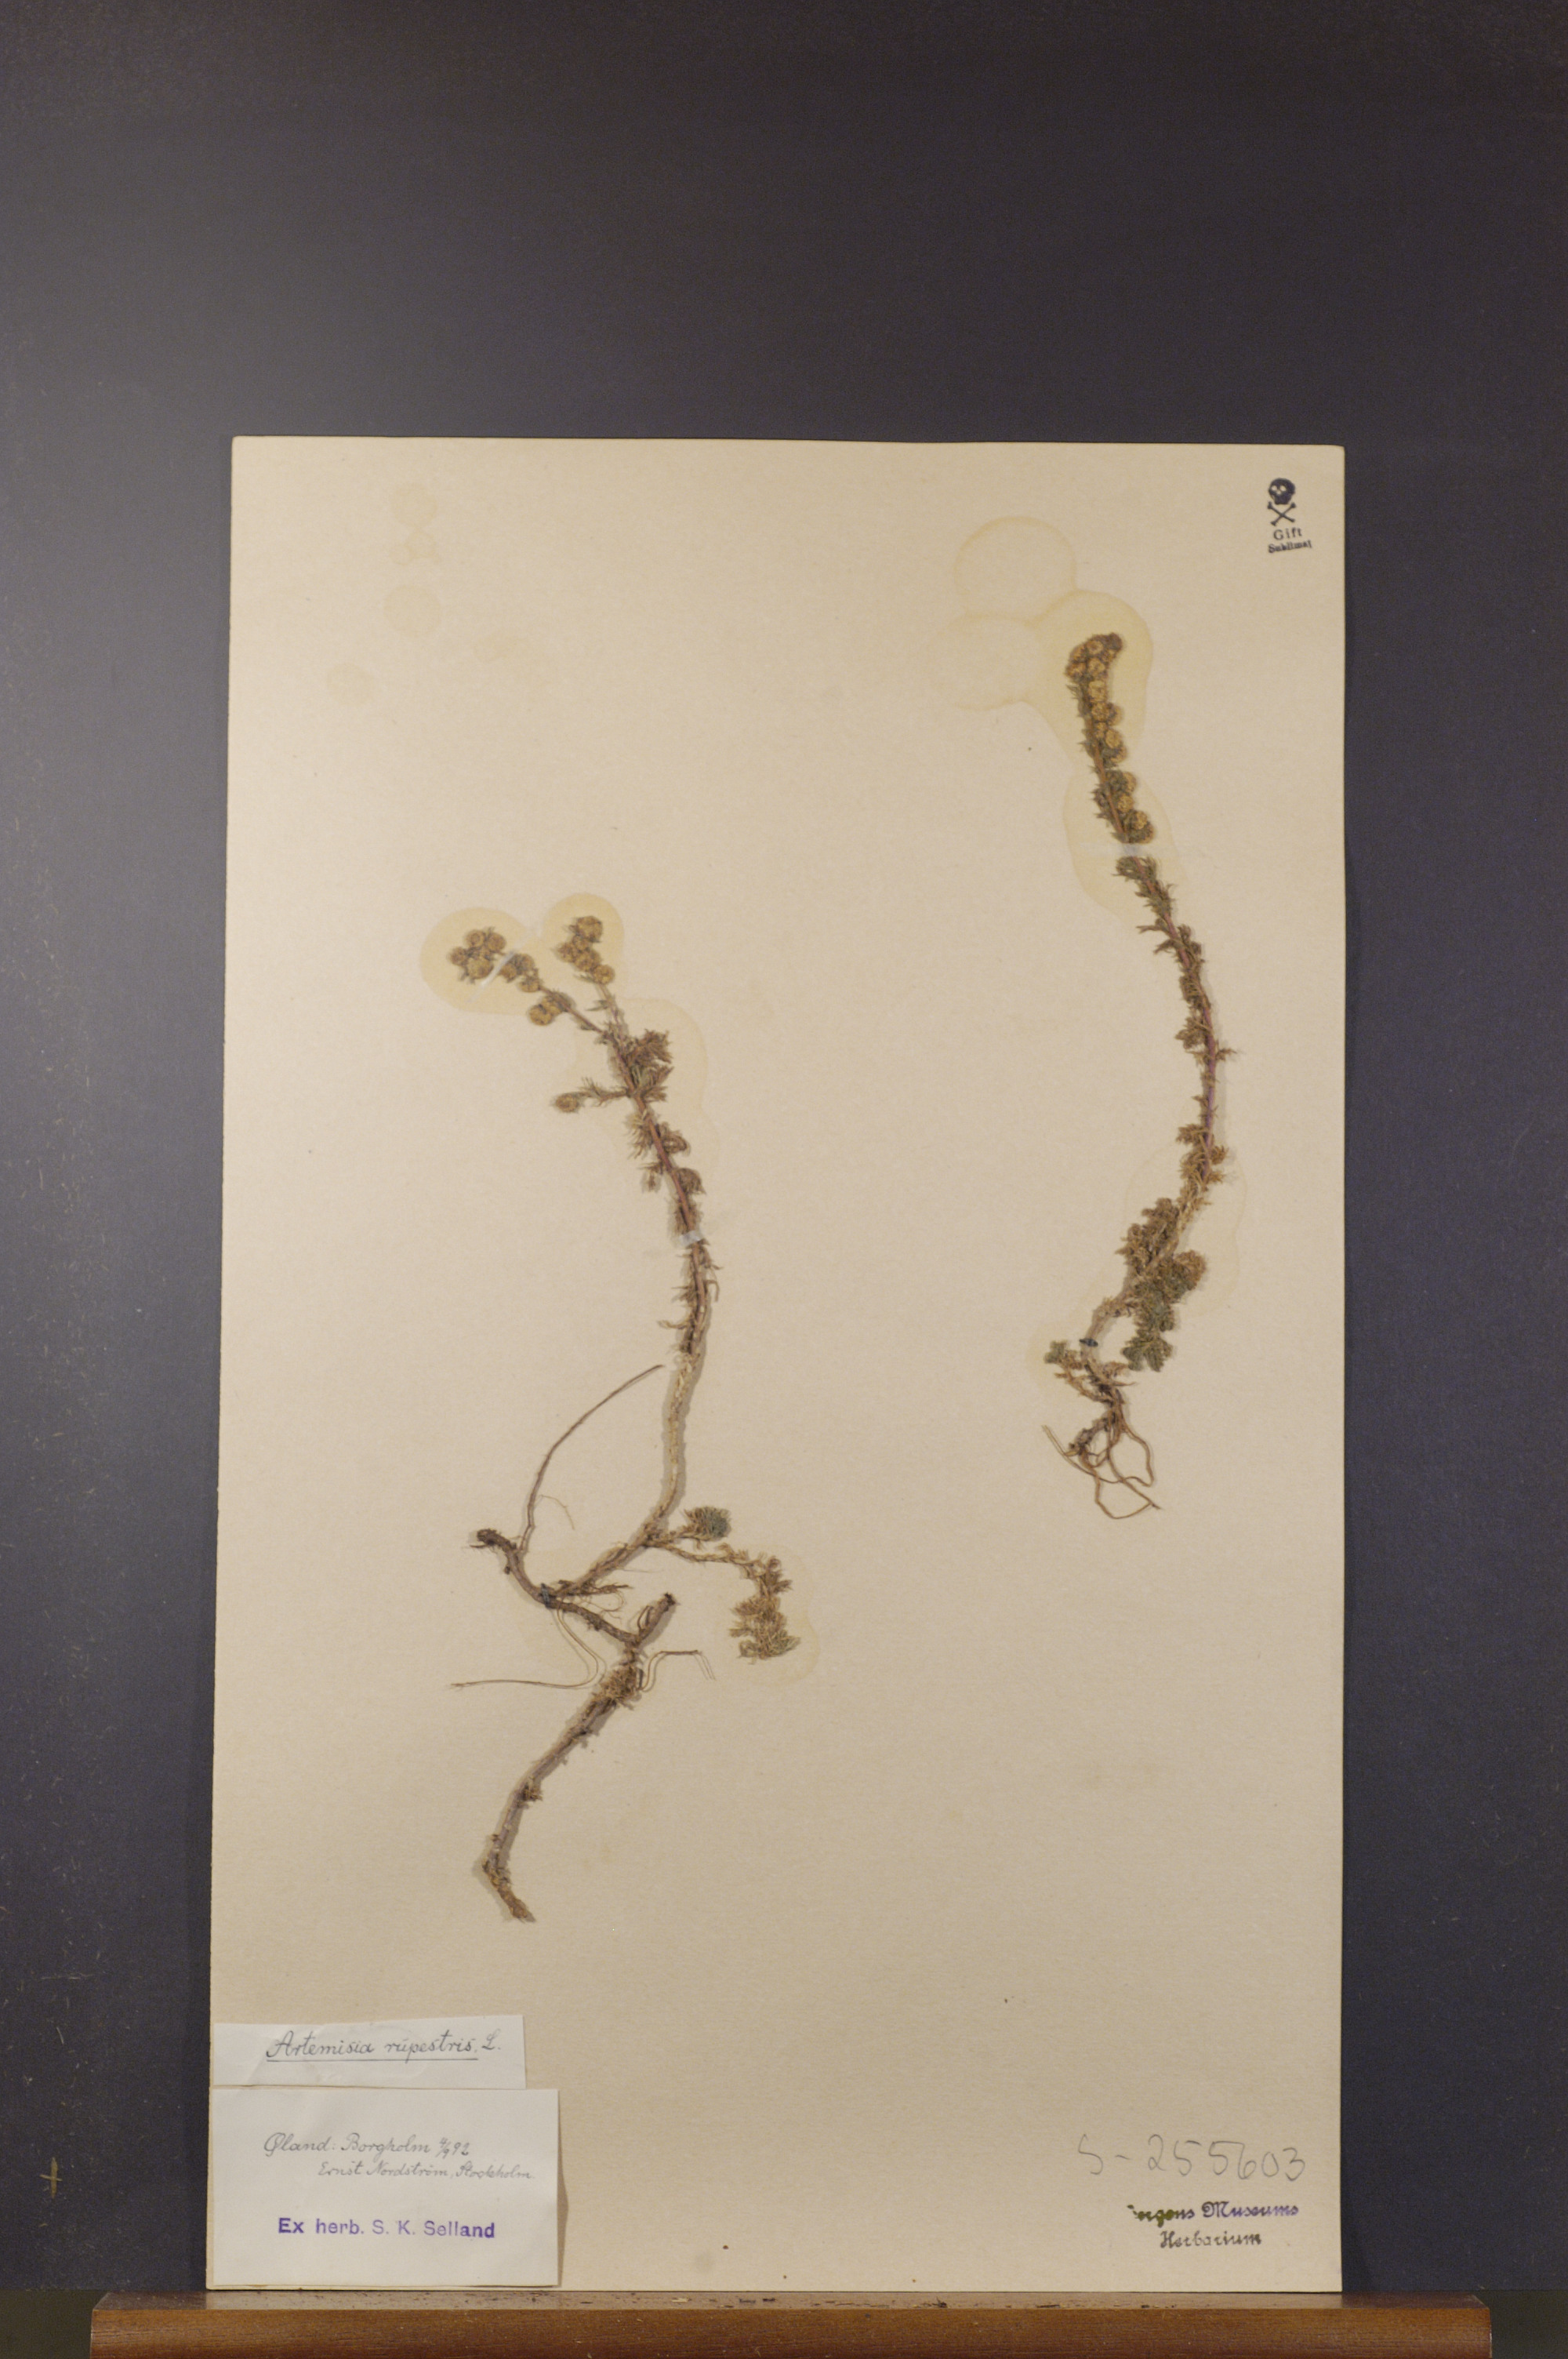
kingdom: Plantae
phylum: Tracheophyta
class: Magnoliopsida
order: Asterales
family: Asteraceae
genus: Artemisia
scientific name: Artemisia rupestris
